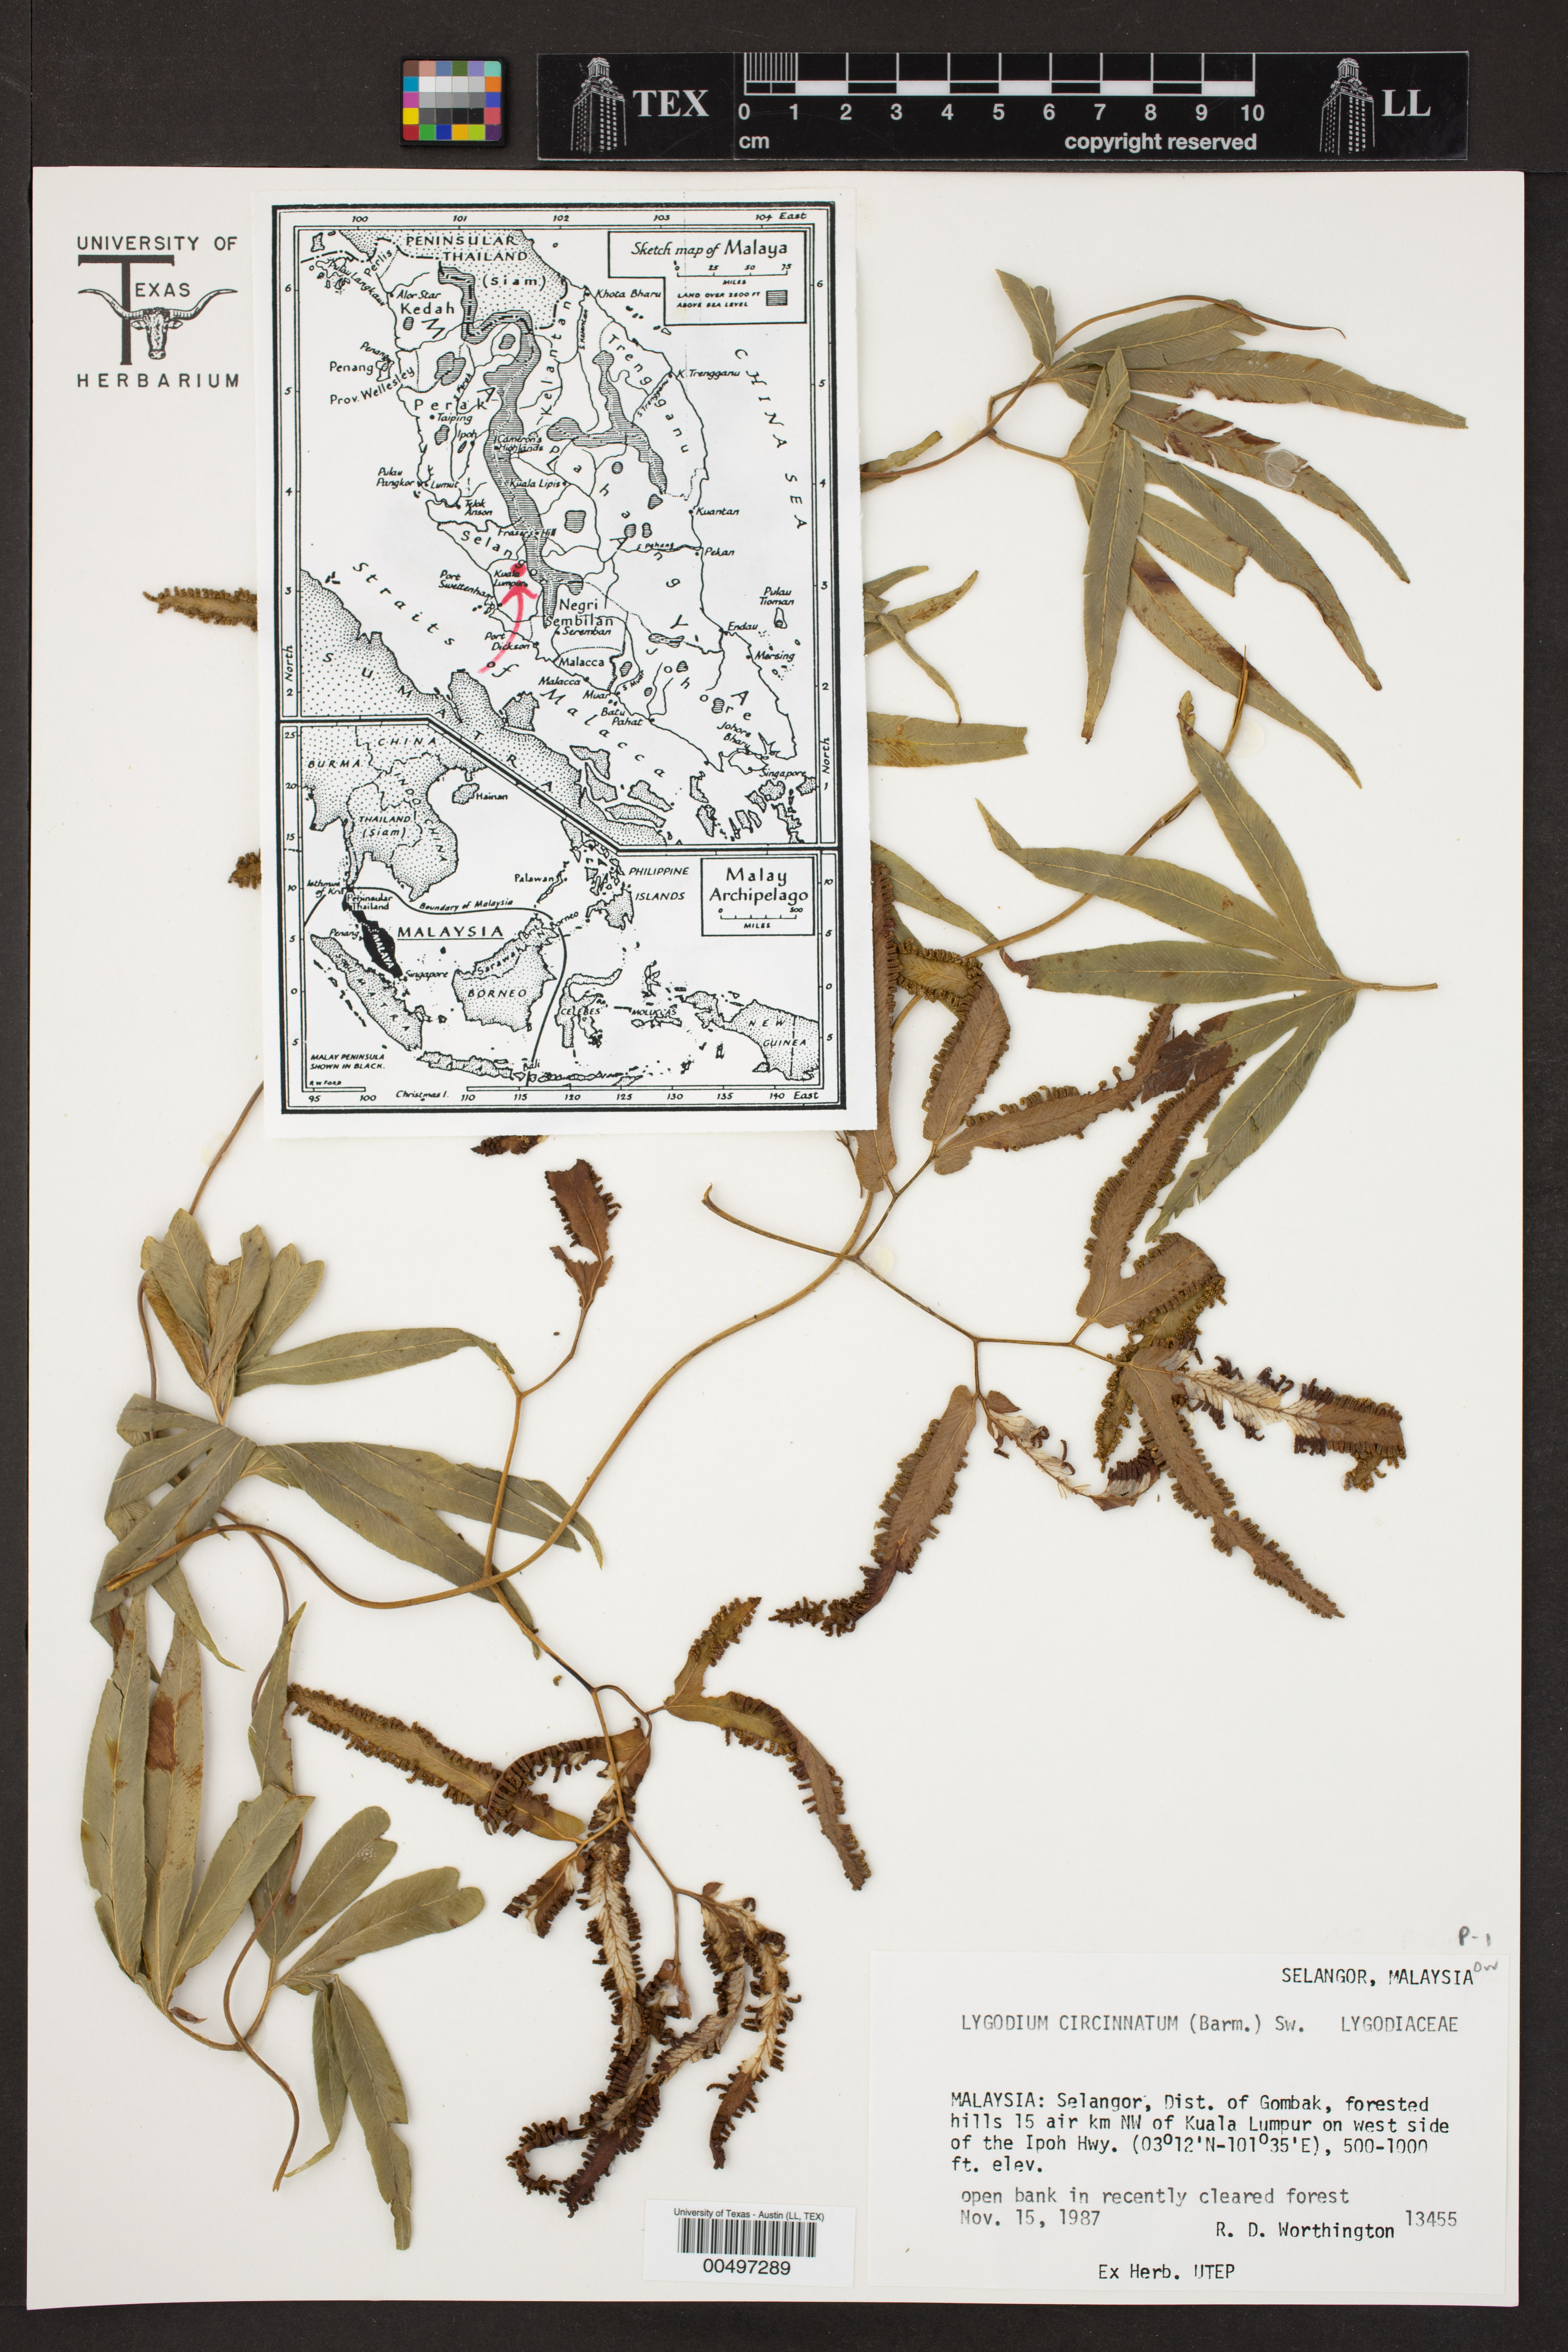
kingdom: Plantae
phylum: Tracheophyta
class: Polypodiopsida
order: Schizaeales
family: Lygodiaceae
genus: Lygodium
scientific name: Lygodium circinnatum
